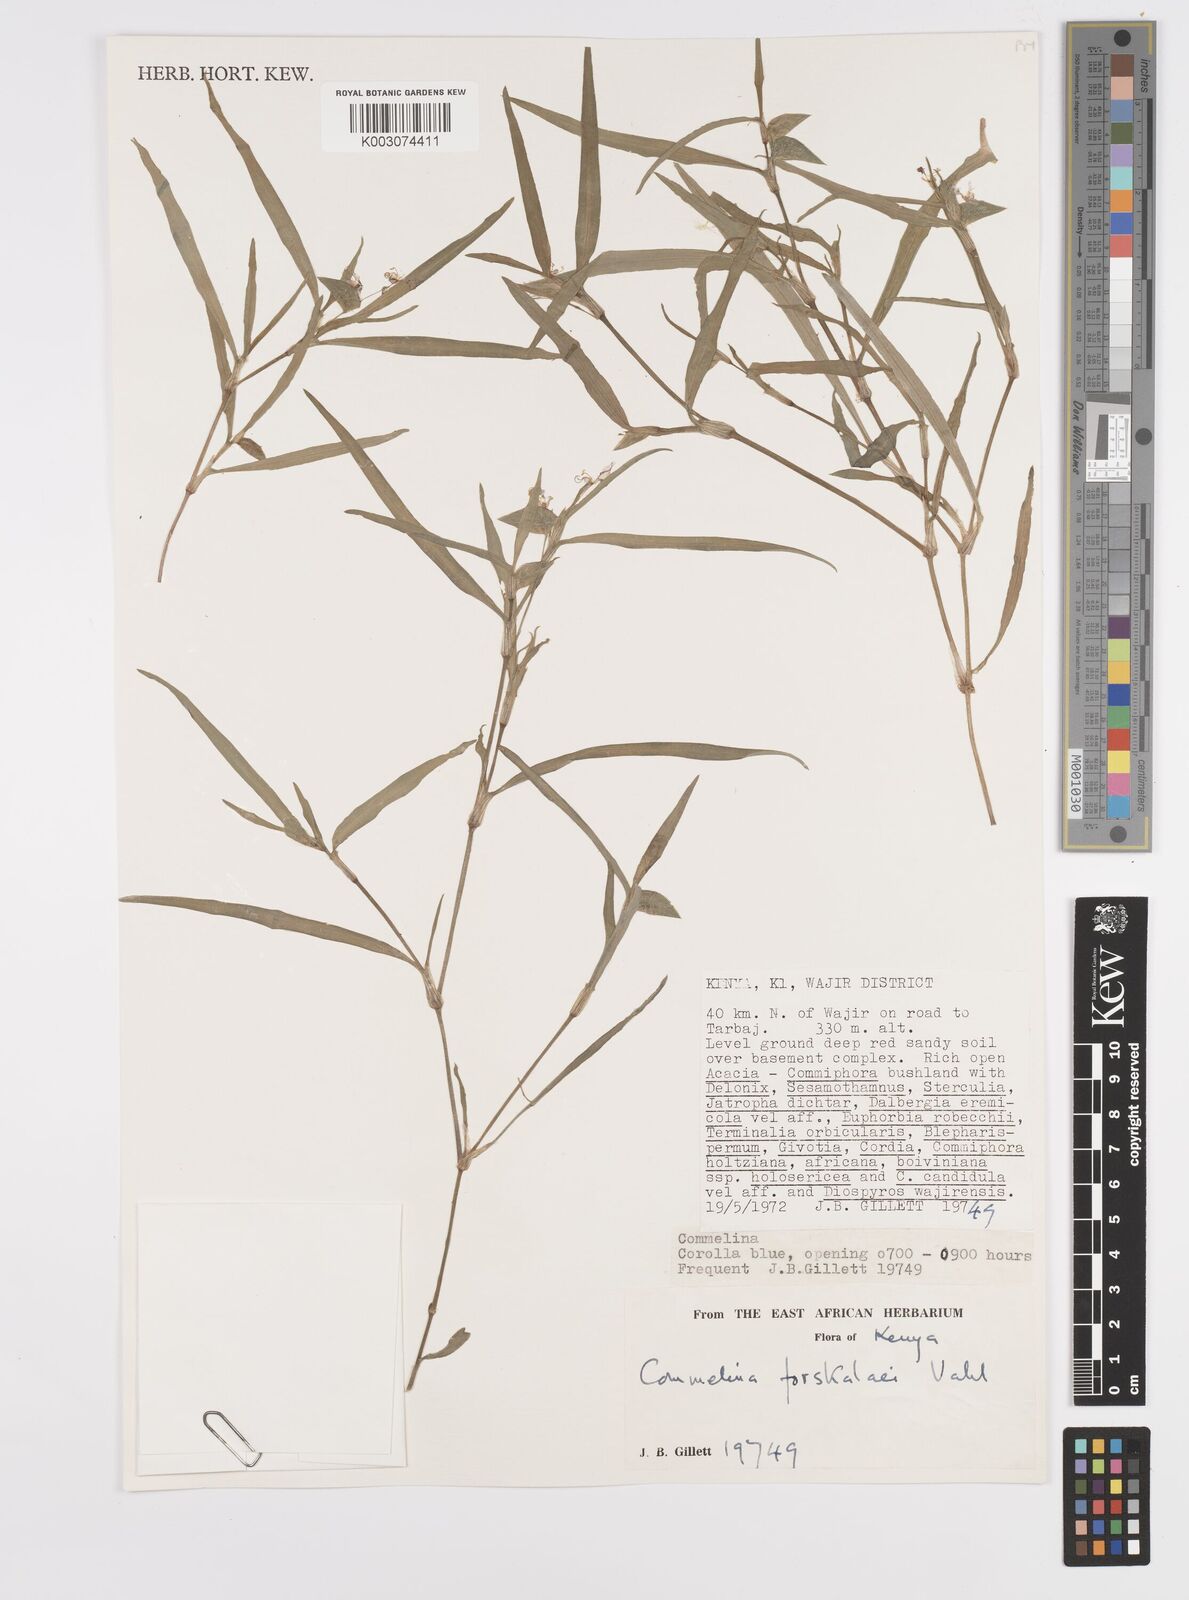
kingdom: Plantae
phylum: Tracheophyta
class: Liliopsida
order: Commelinales
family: Commelinaceae
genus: Commelina
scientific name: Commelina forskaolii
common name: Rat's ear
